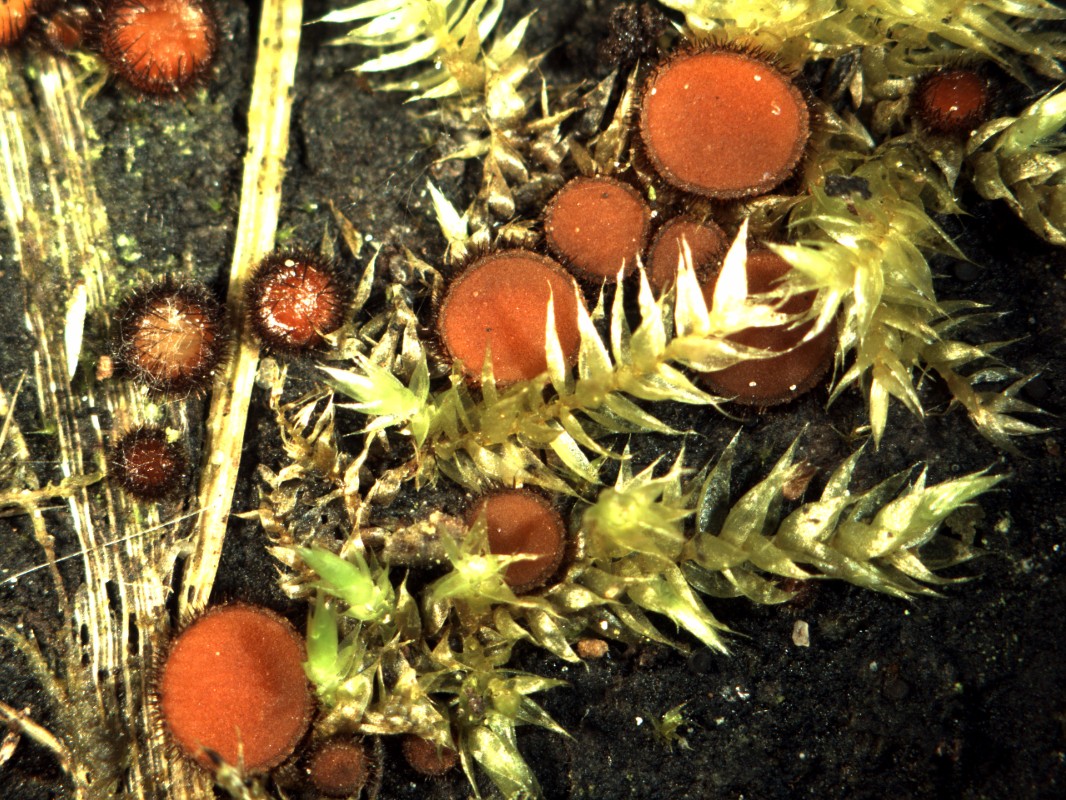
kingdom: Fungi
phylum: Ascomycota
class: Pezizomycetes
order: Pezizales
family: Pyronemataceae
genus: Scutellinia
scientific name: Scutellinia scutellata
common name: frynset skjoldbæger
